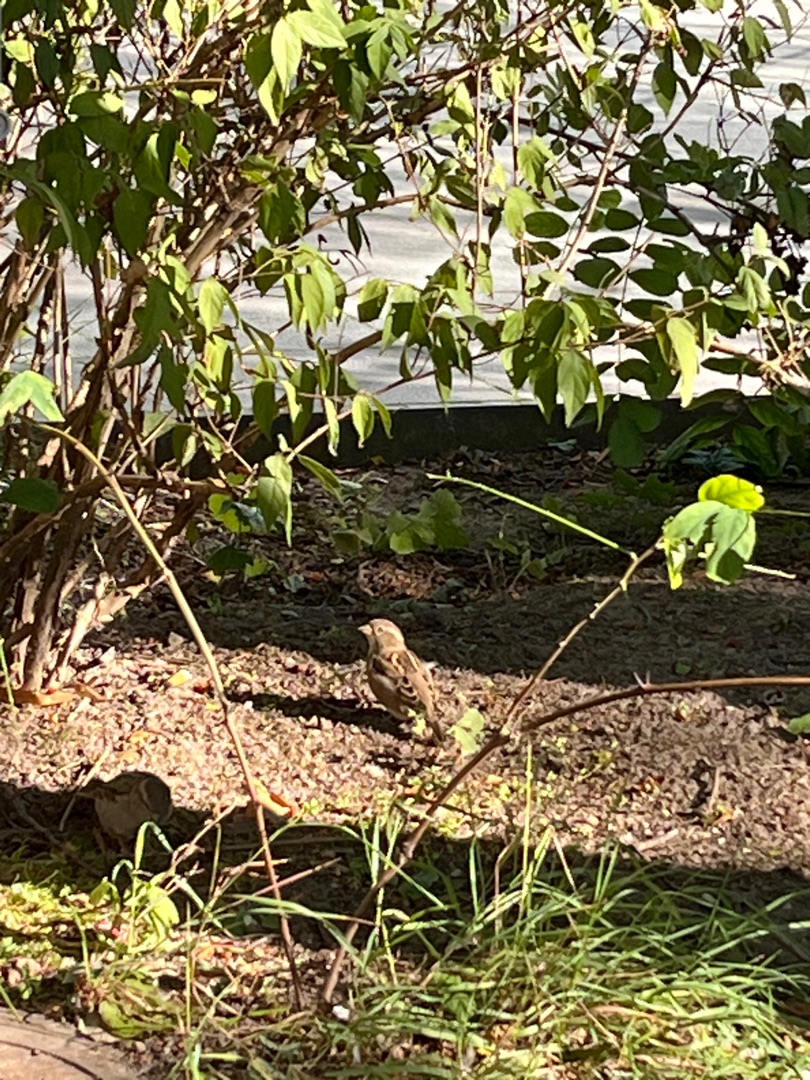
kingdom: Animalia
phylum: Chordata
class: Aves
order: Passeriformes
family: Passeridae
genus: Passer
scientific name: Passer domesticus
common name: Gråspurv
